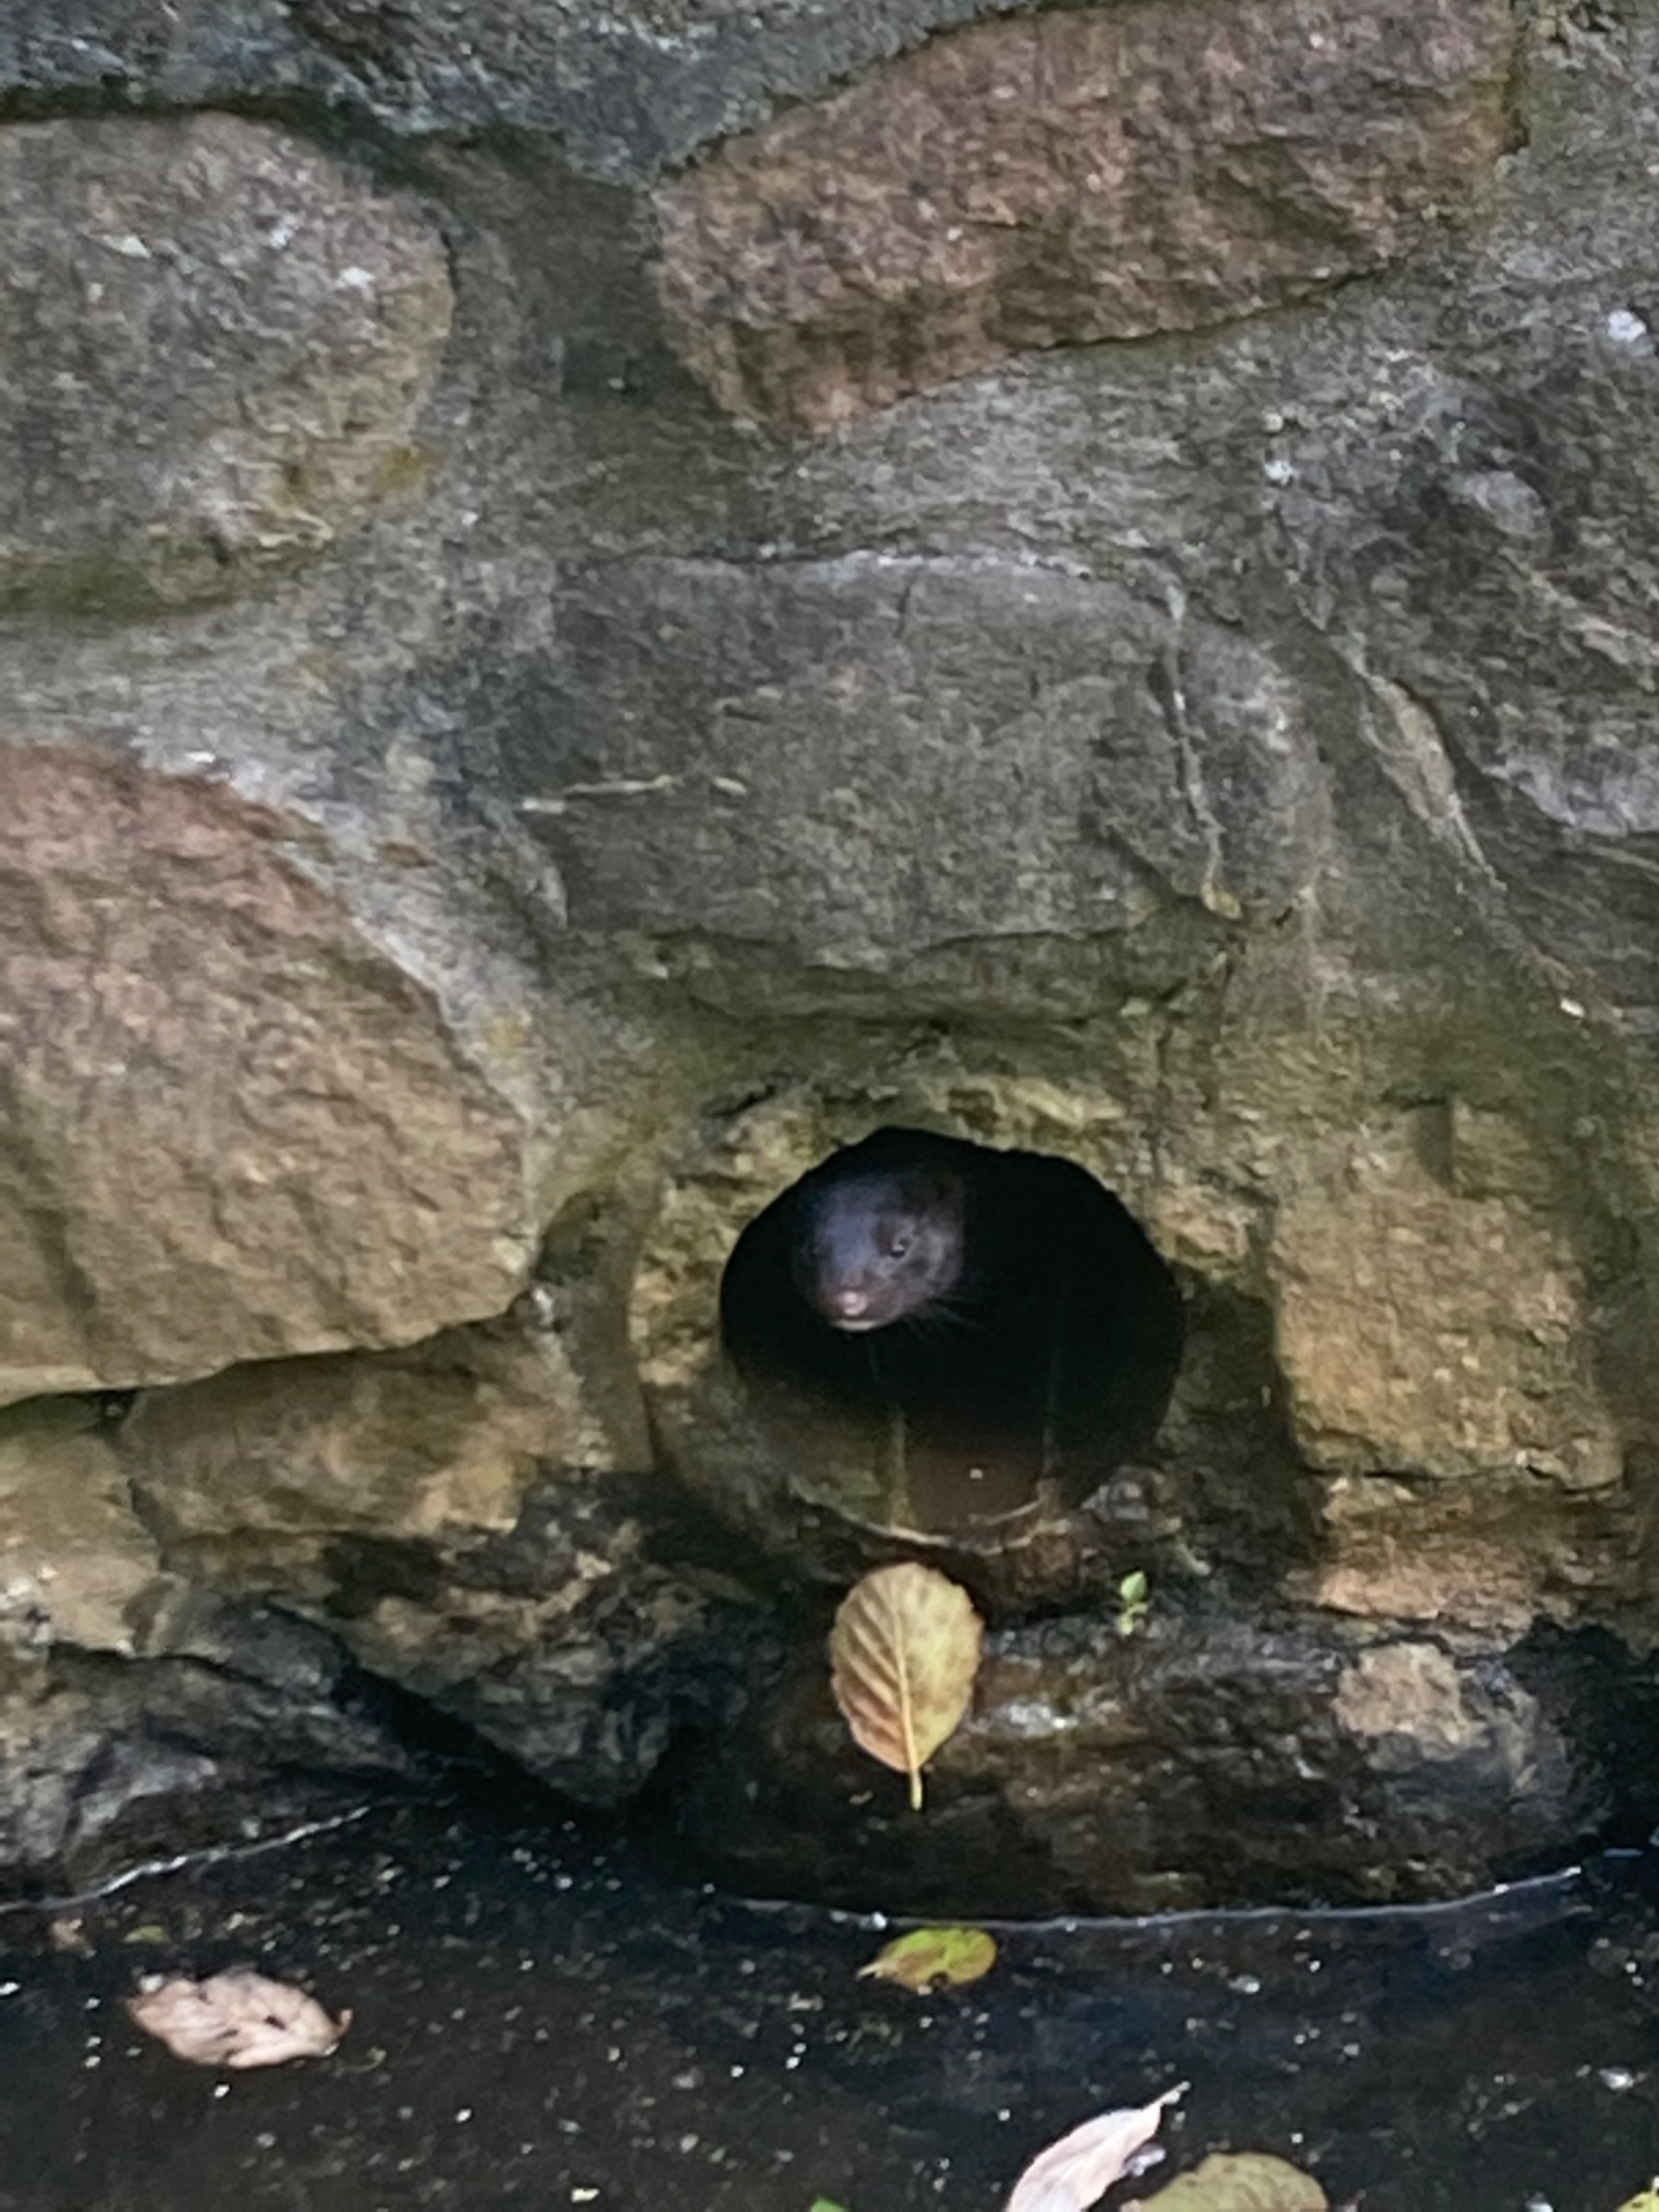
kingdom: Animalia
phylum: Chordata
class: Mammalia
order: Carnivora
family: Mustelidae
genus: Mustela
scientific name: Mustela vison
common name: Mink
